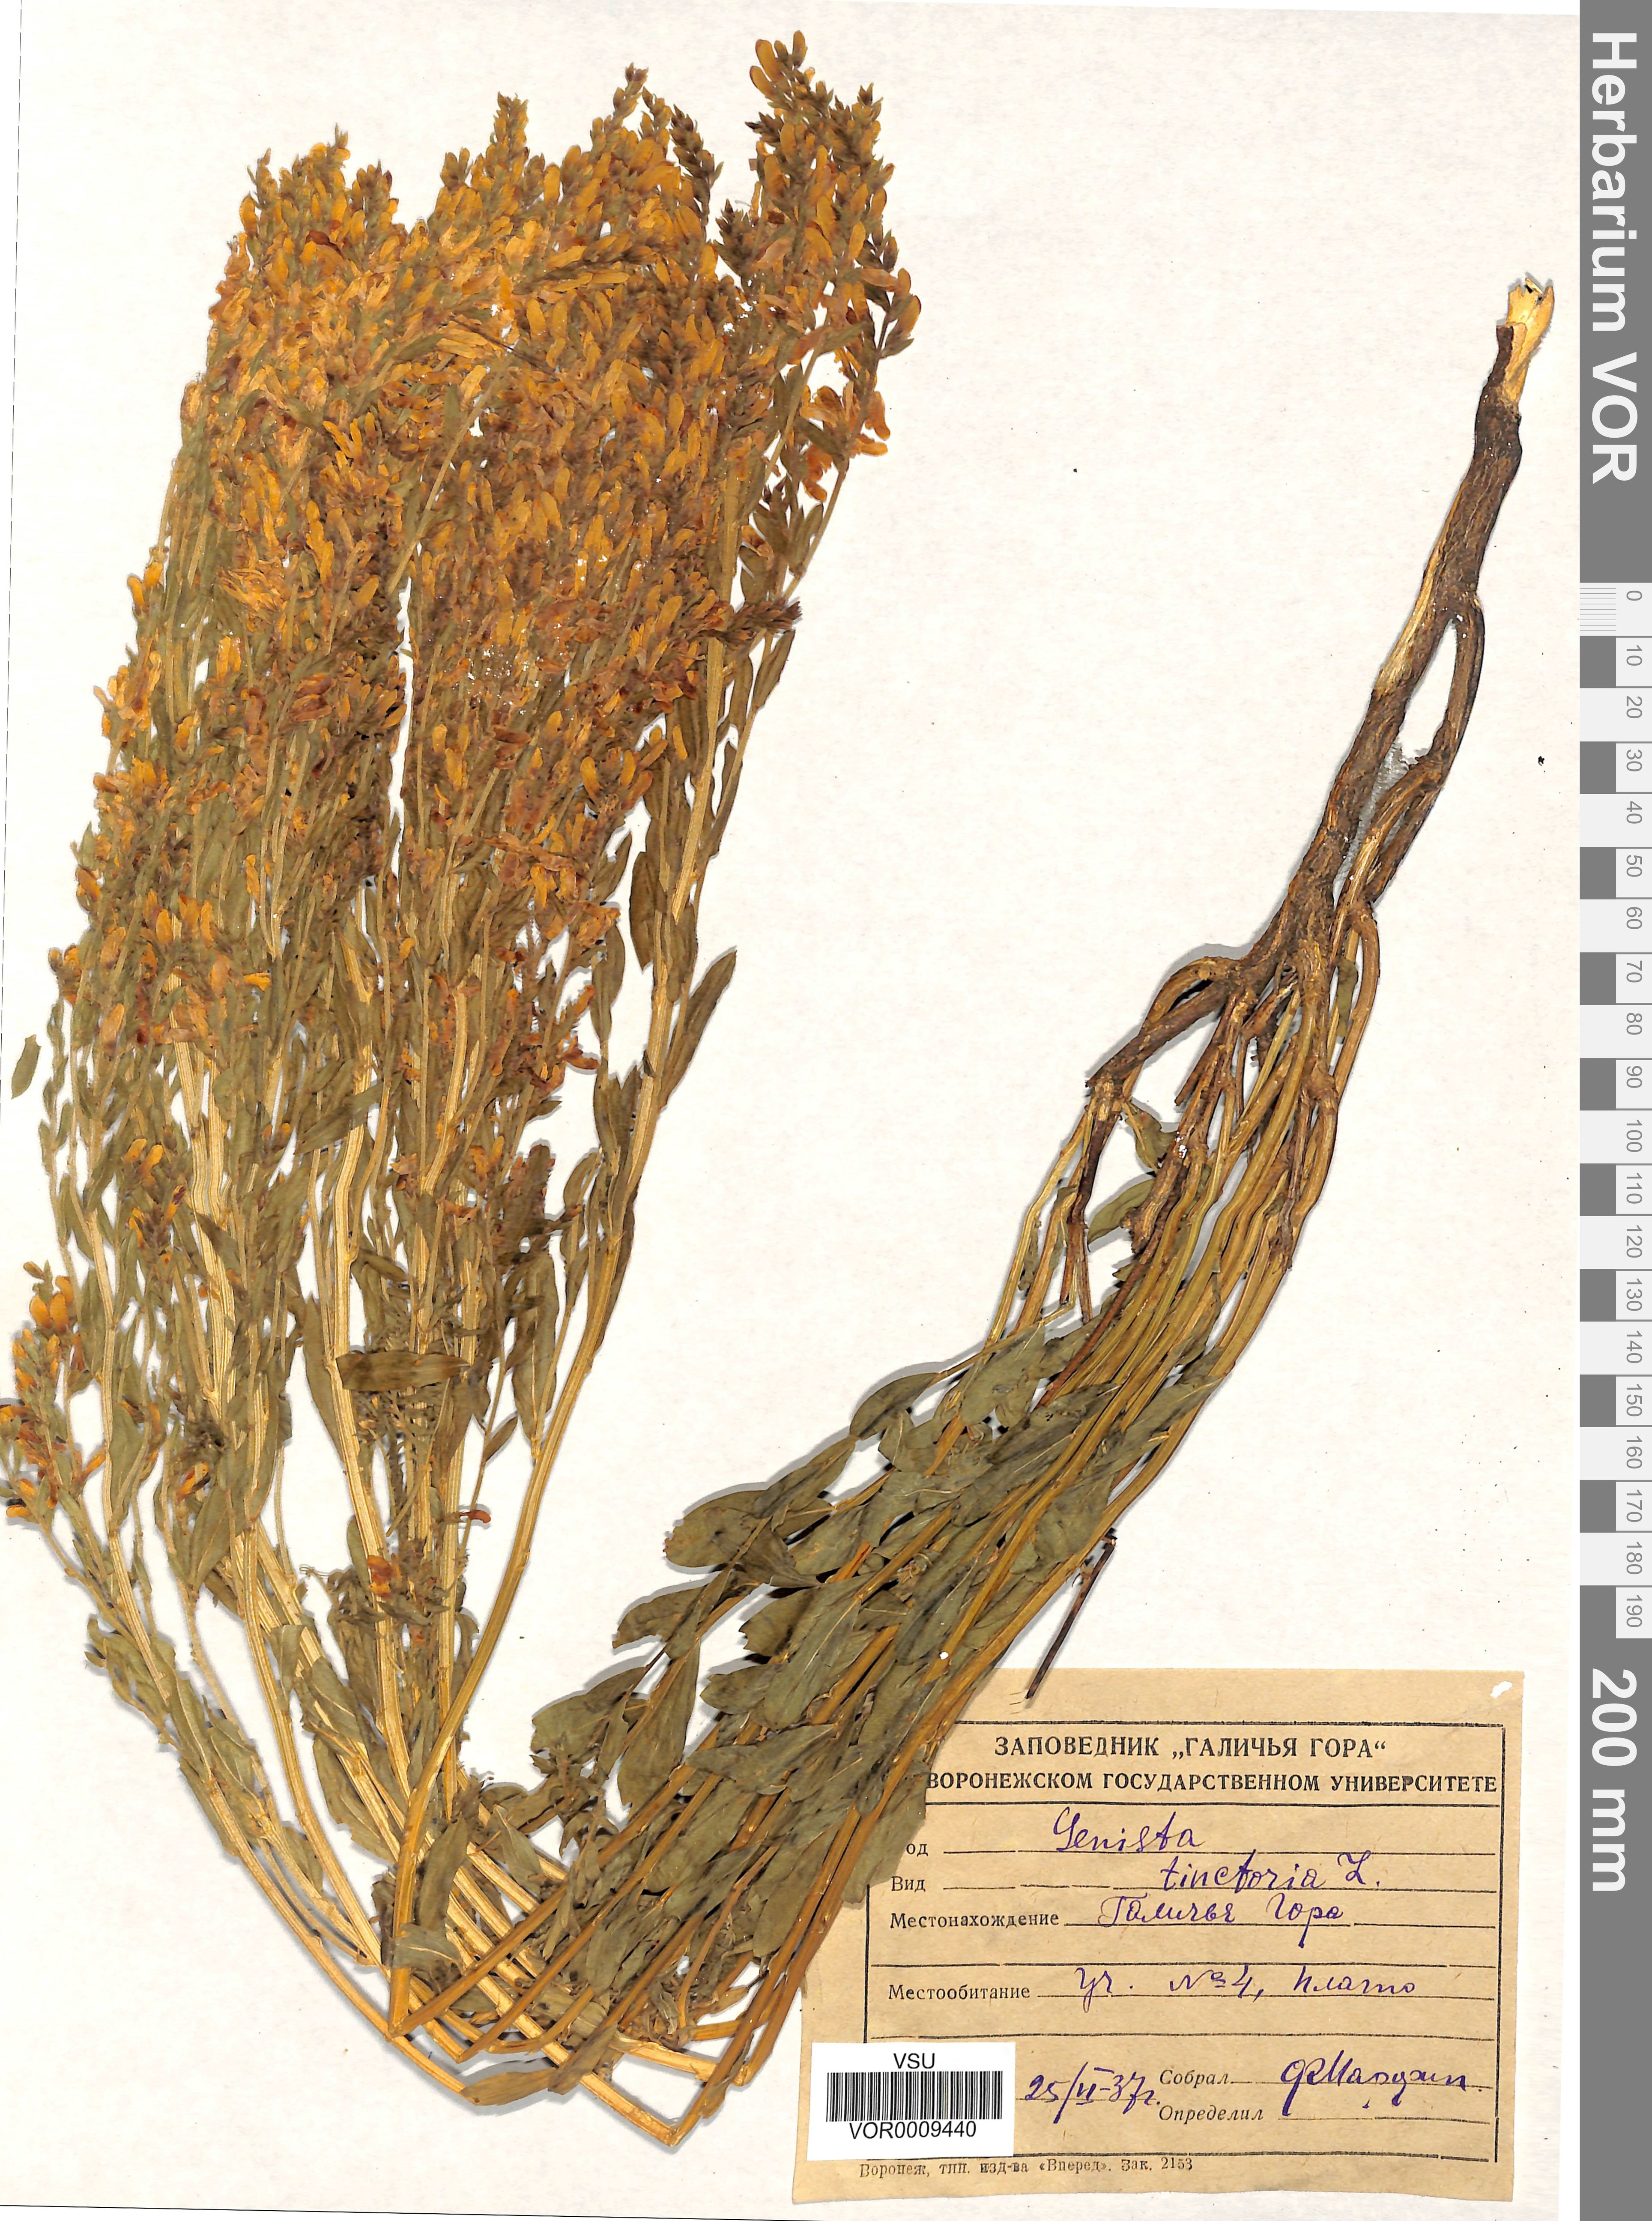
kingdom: Plantae
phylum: Tracheophyta
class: Magnoliopsida
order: Fabales
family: Fabaceae
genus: Genista
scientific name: Genista tinctoria
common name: Dyer's greenweed
